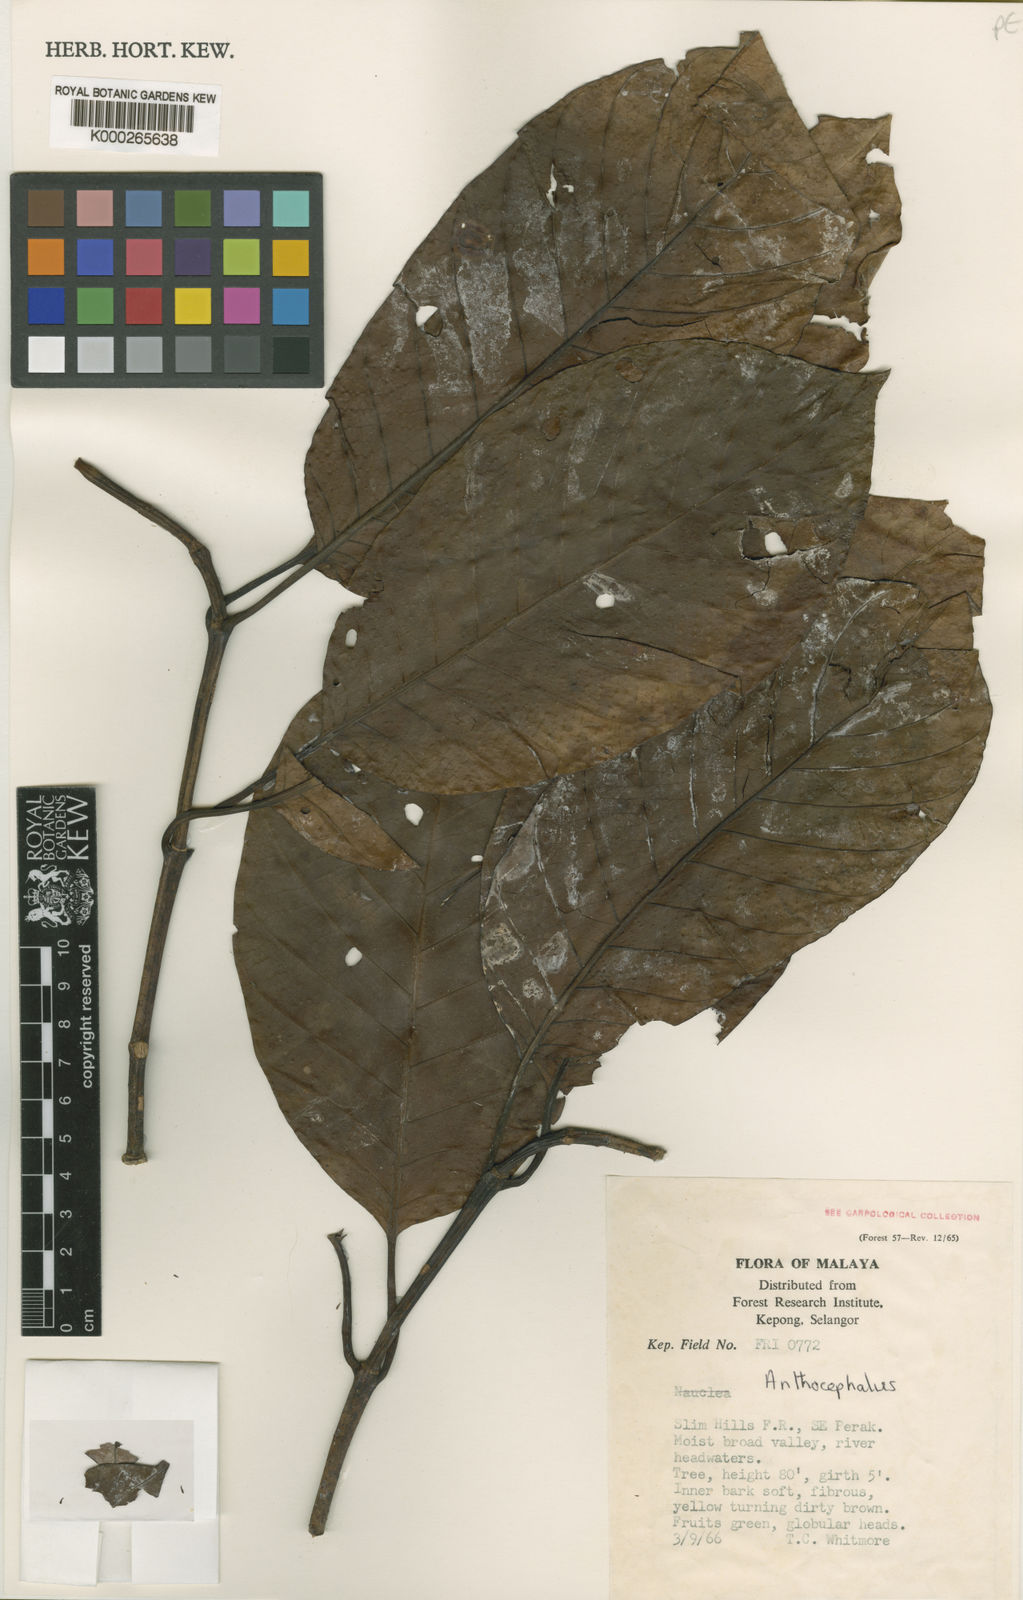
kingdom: Plantae
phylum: Tracheophyta
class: Magnoliopsida
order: Gentianales
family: Rubiaceae
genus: Neolamarckia
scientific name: Neolamarckia cadamba
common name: Leichhardt-pine
